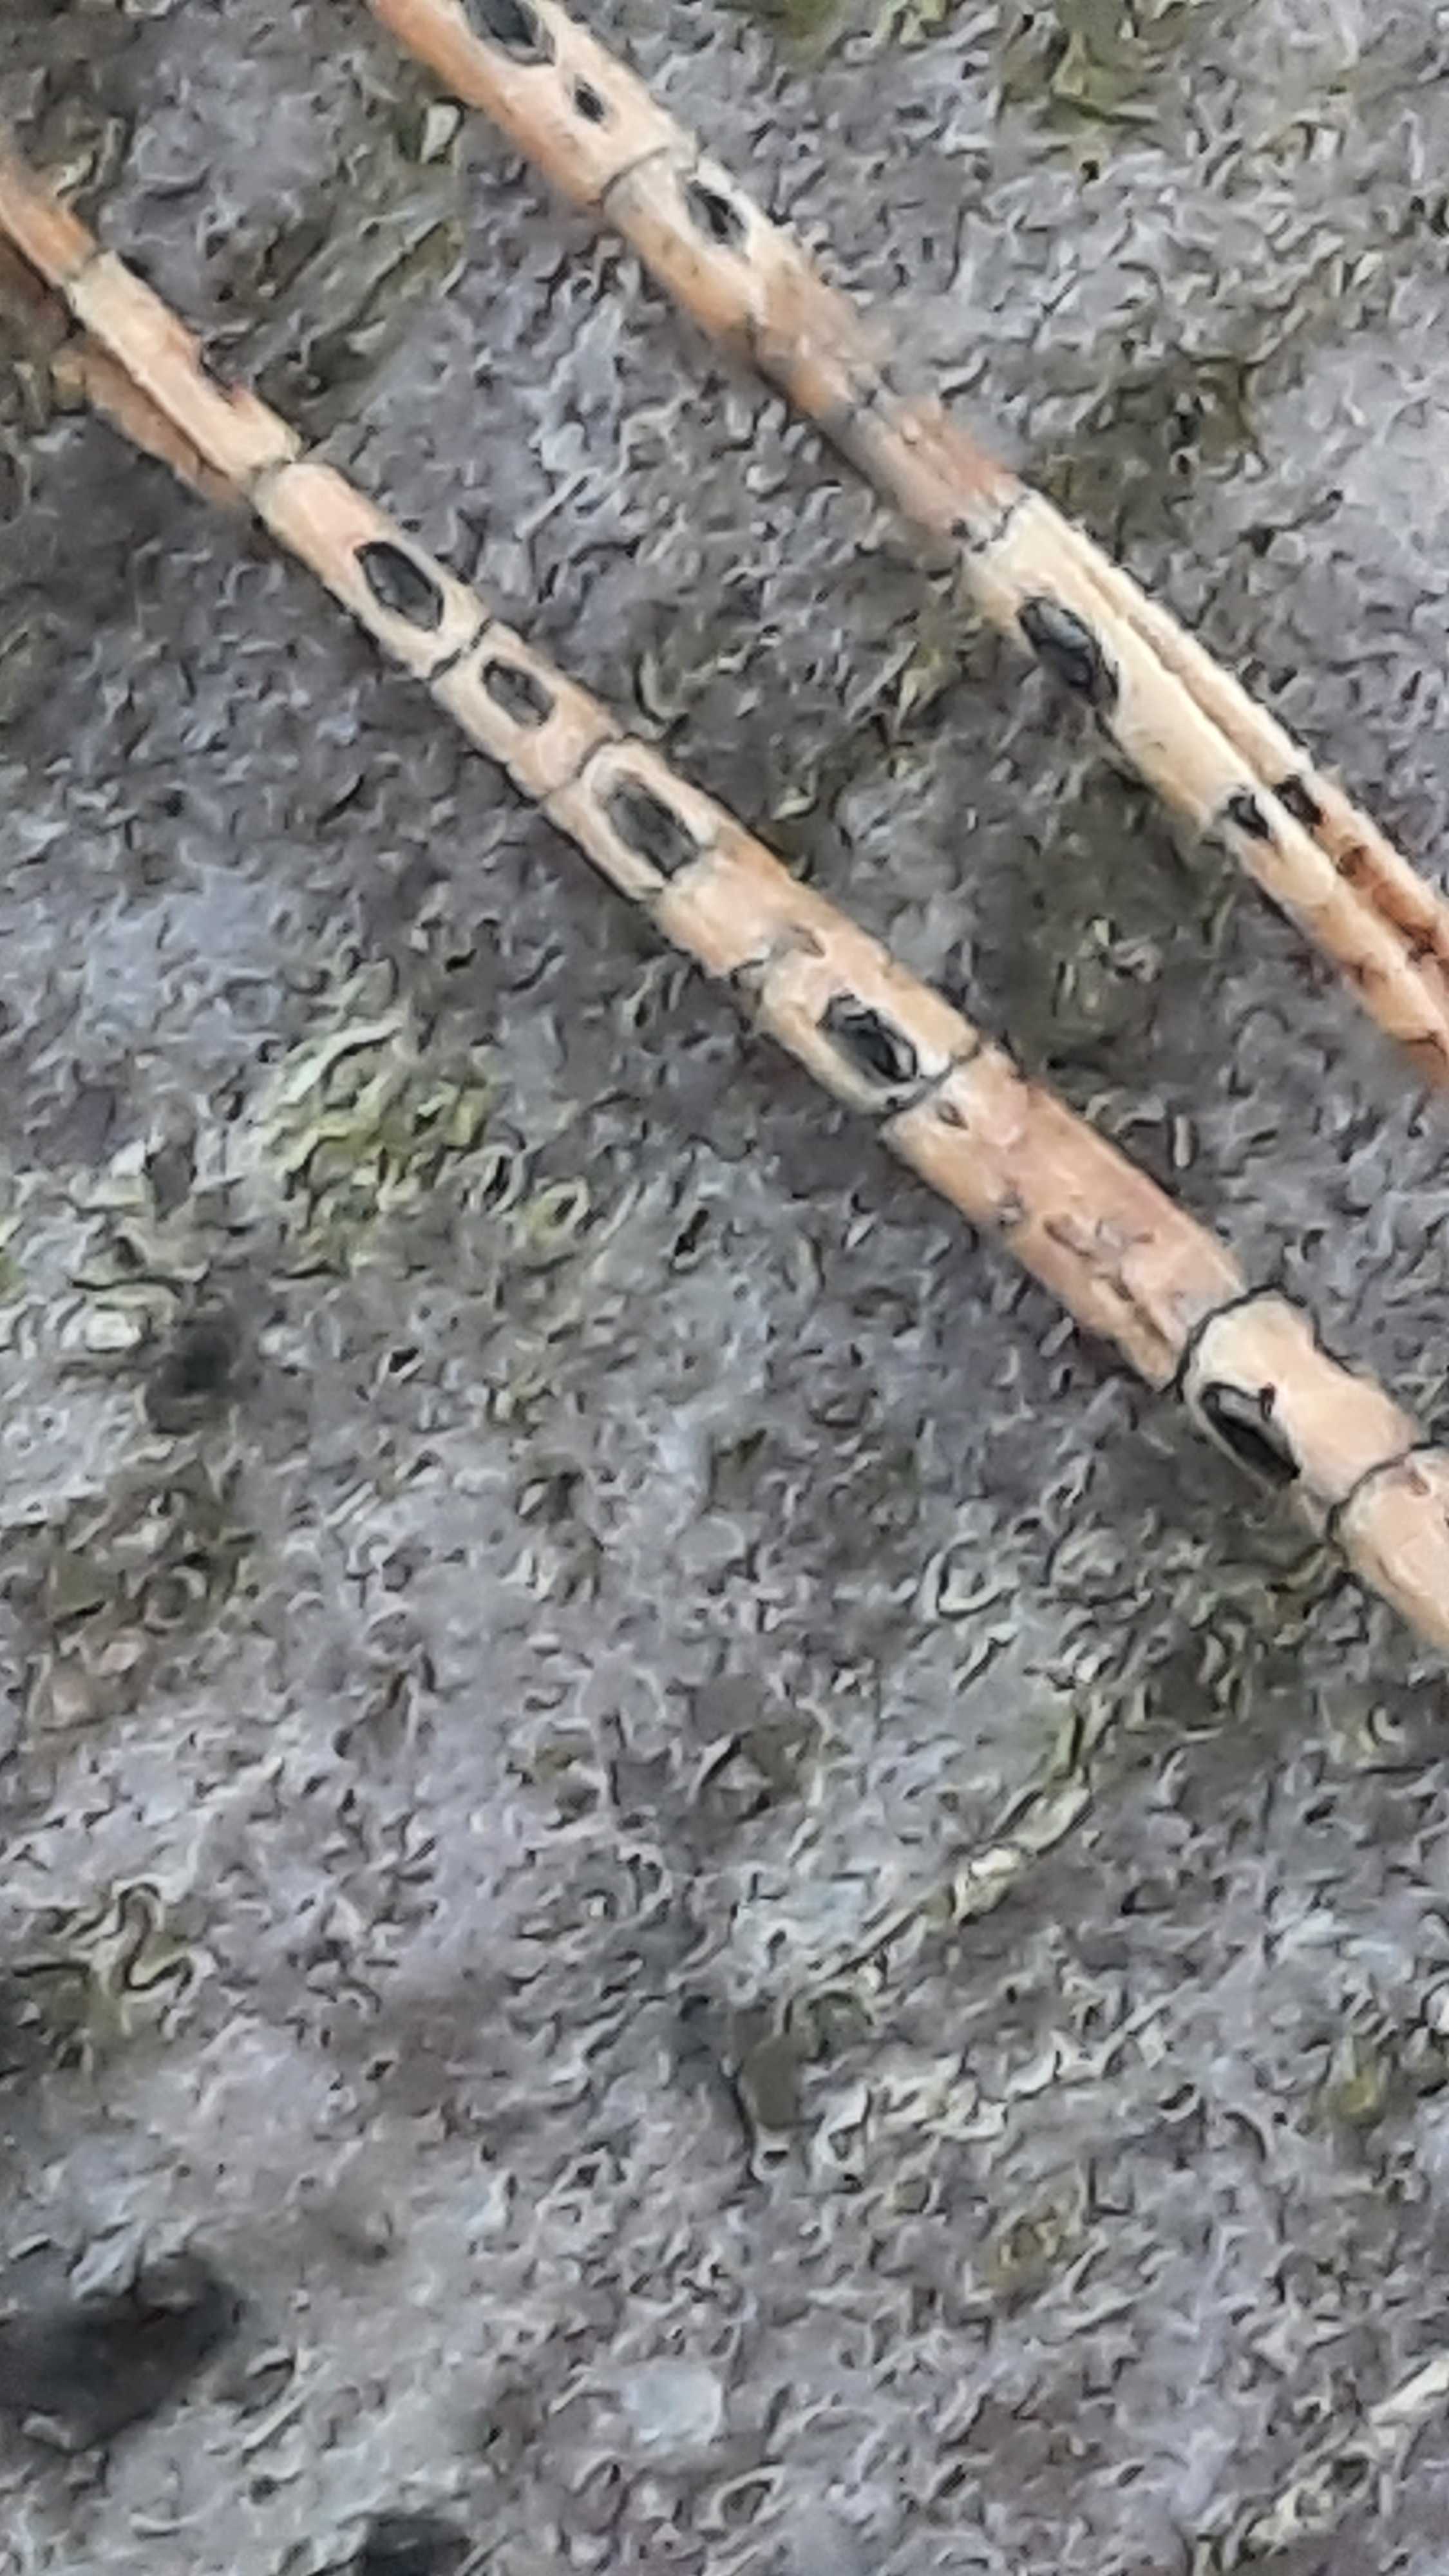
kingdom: Fungi
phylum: Ascomycota
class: Leotiomycetes
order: Rhytismatales
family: Rhytismataceae
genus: Lophodermium
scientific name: Lophodermium pinastri
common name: fyrre-fureplet
